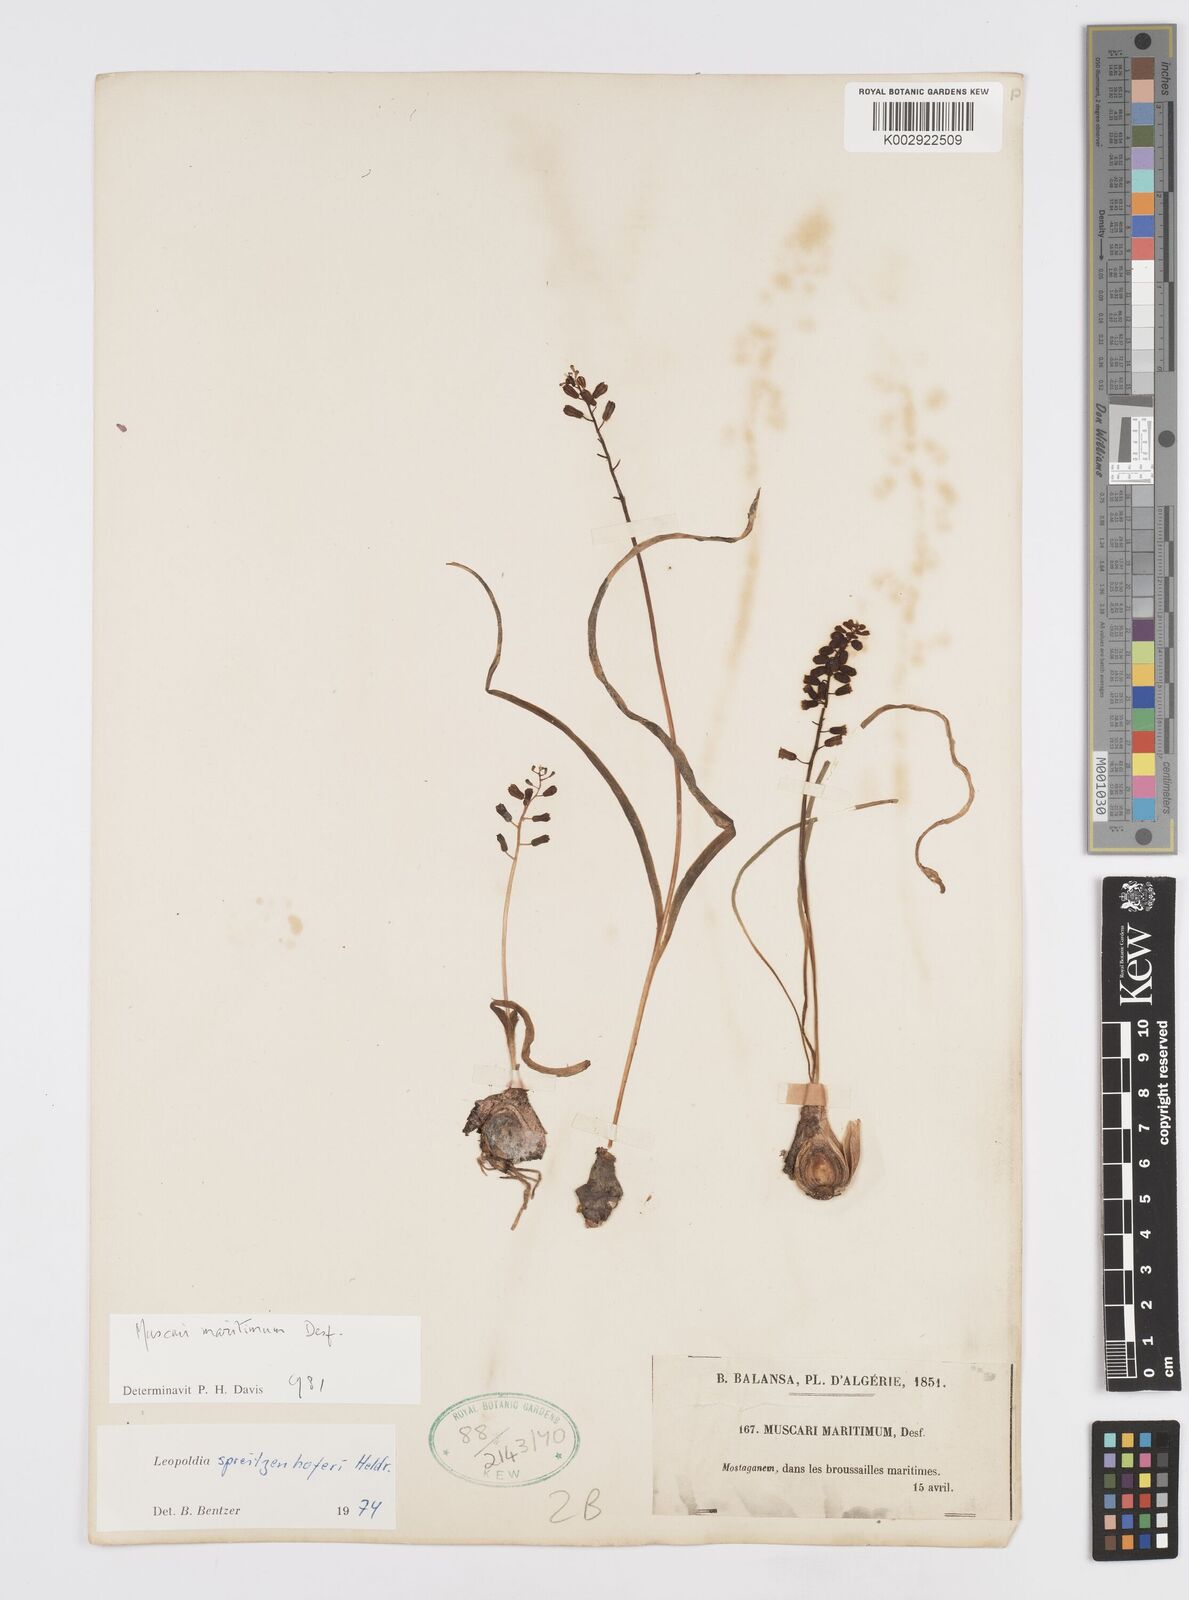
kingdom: Plantae
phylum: Tracheophyta
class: Liliopsida
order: Asparagales
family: Asparagaceae
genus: Muscari
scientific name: Muscari spreitzenhoferi
